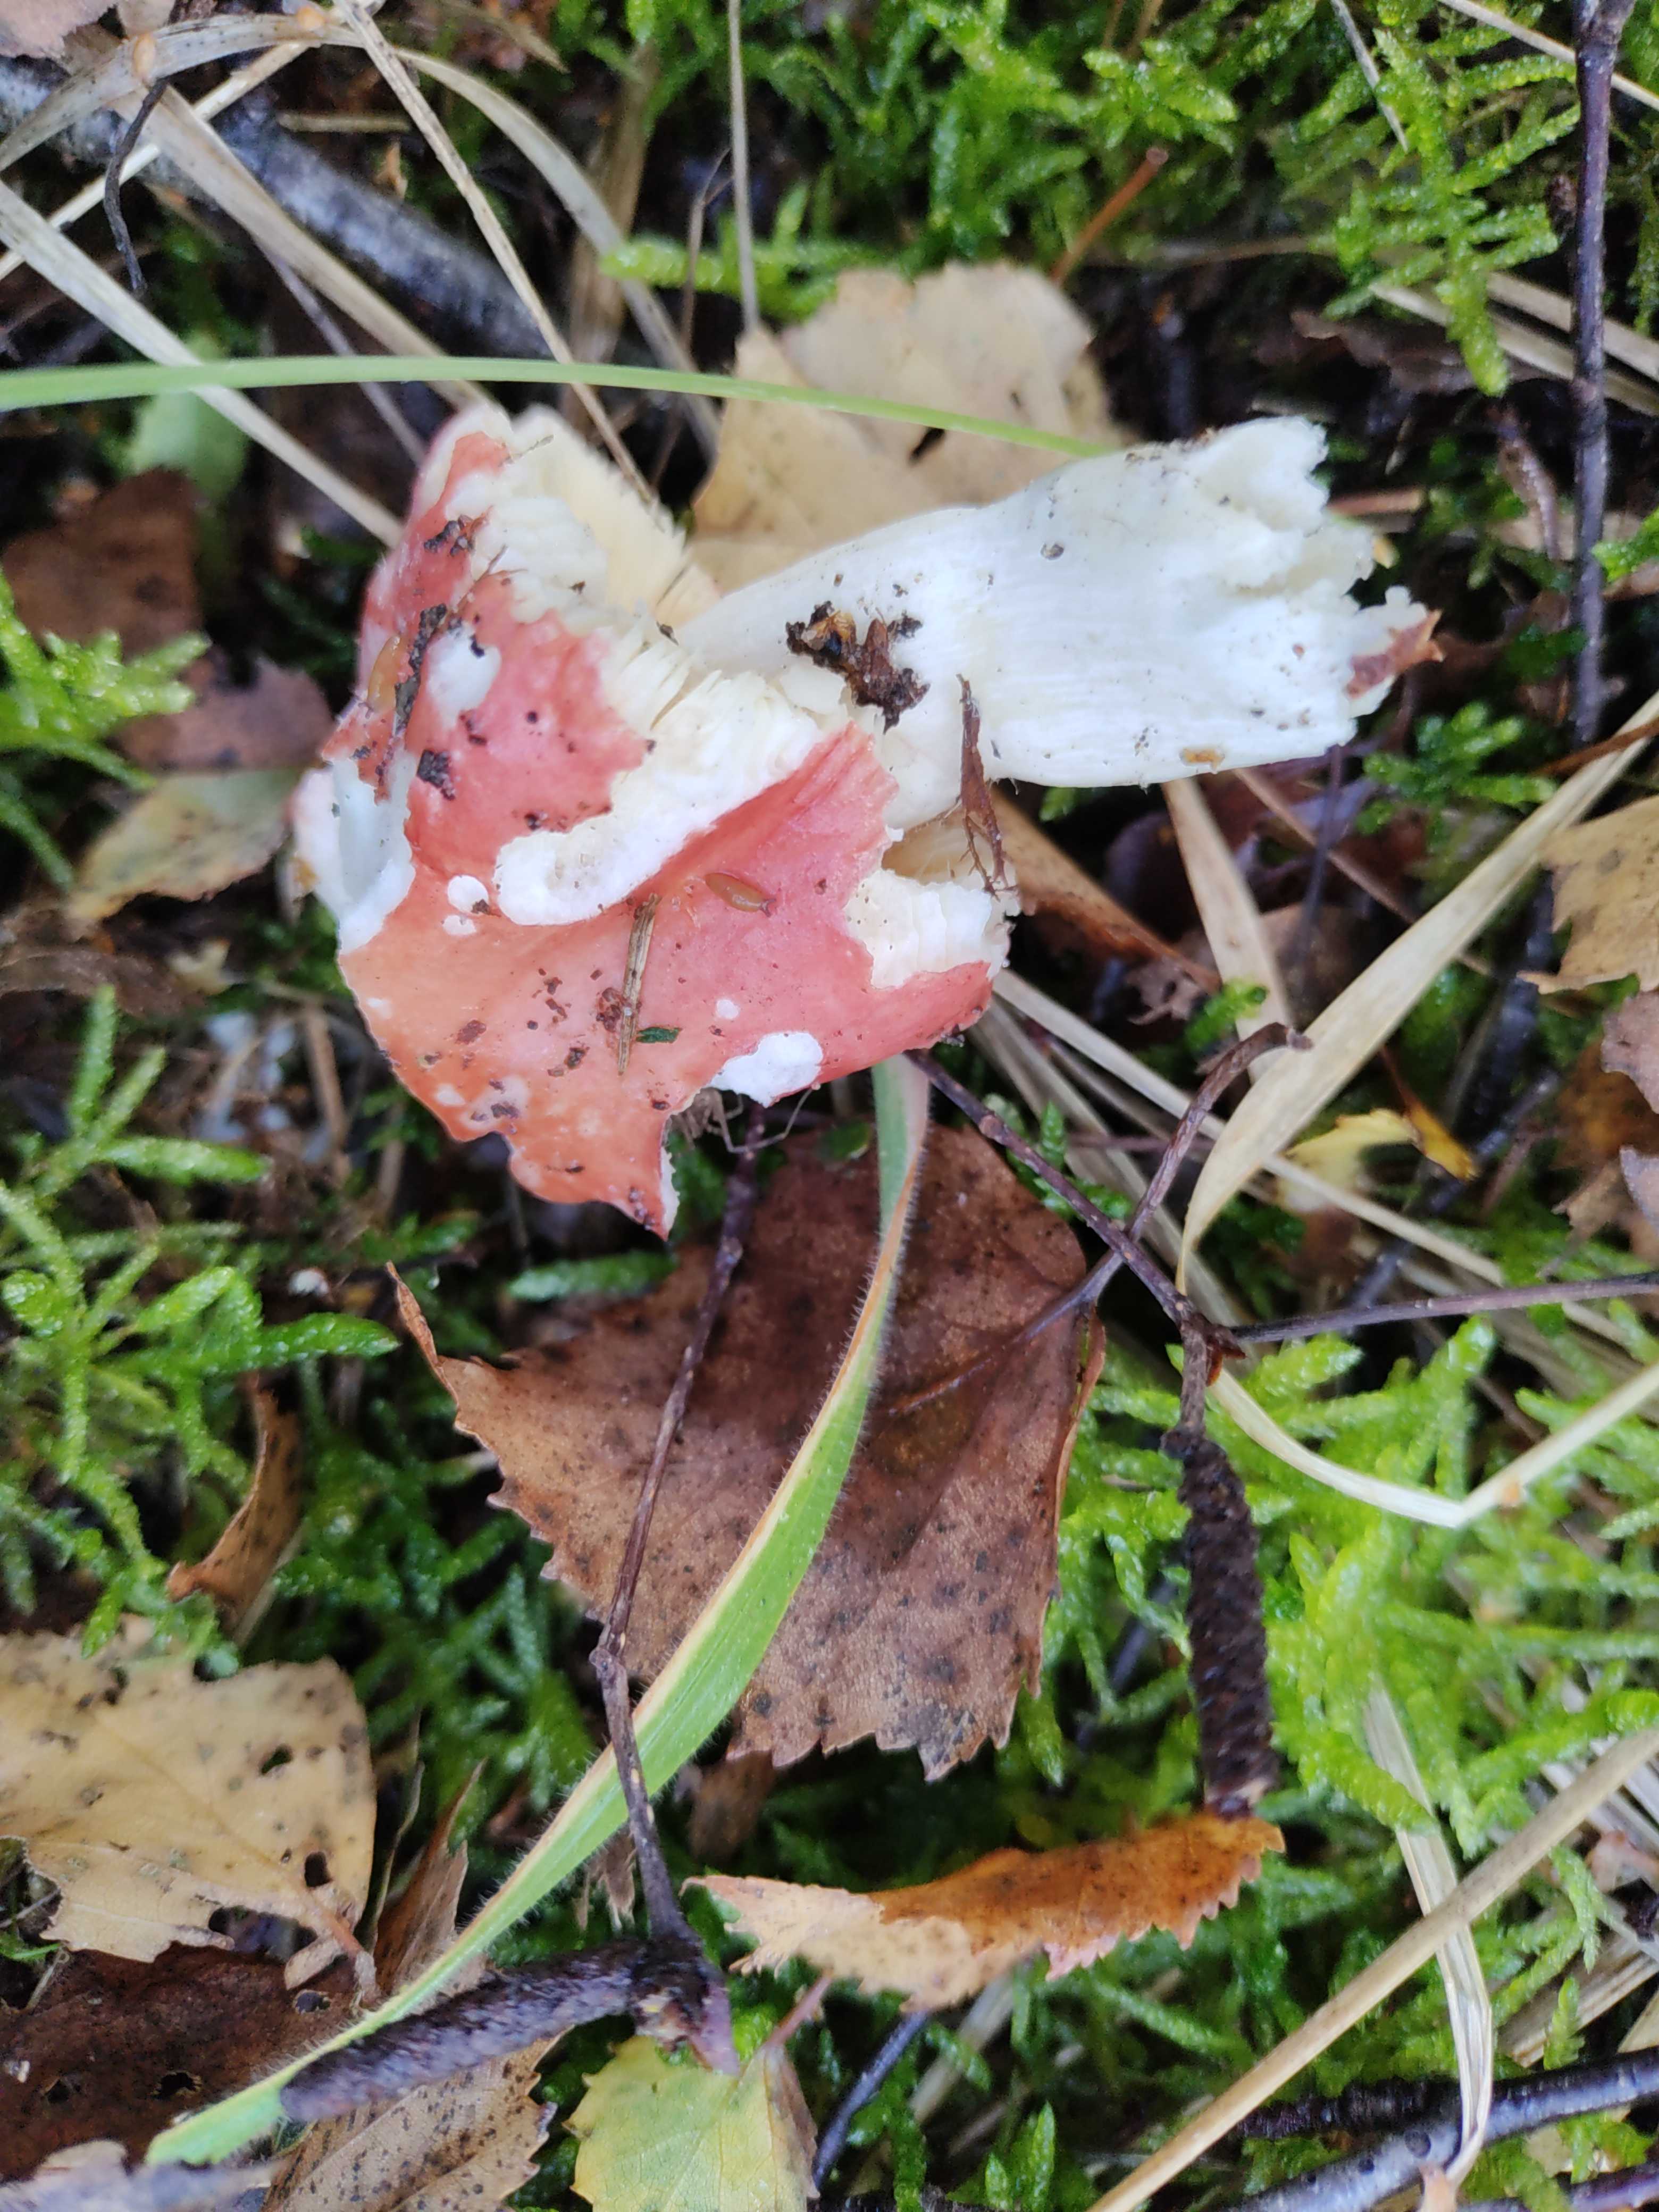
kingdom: Fungi
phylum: Basidiomycota
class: Agaricomycetes
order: Russulales
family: Russulaceae
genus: Russula
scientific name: Russula
